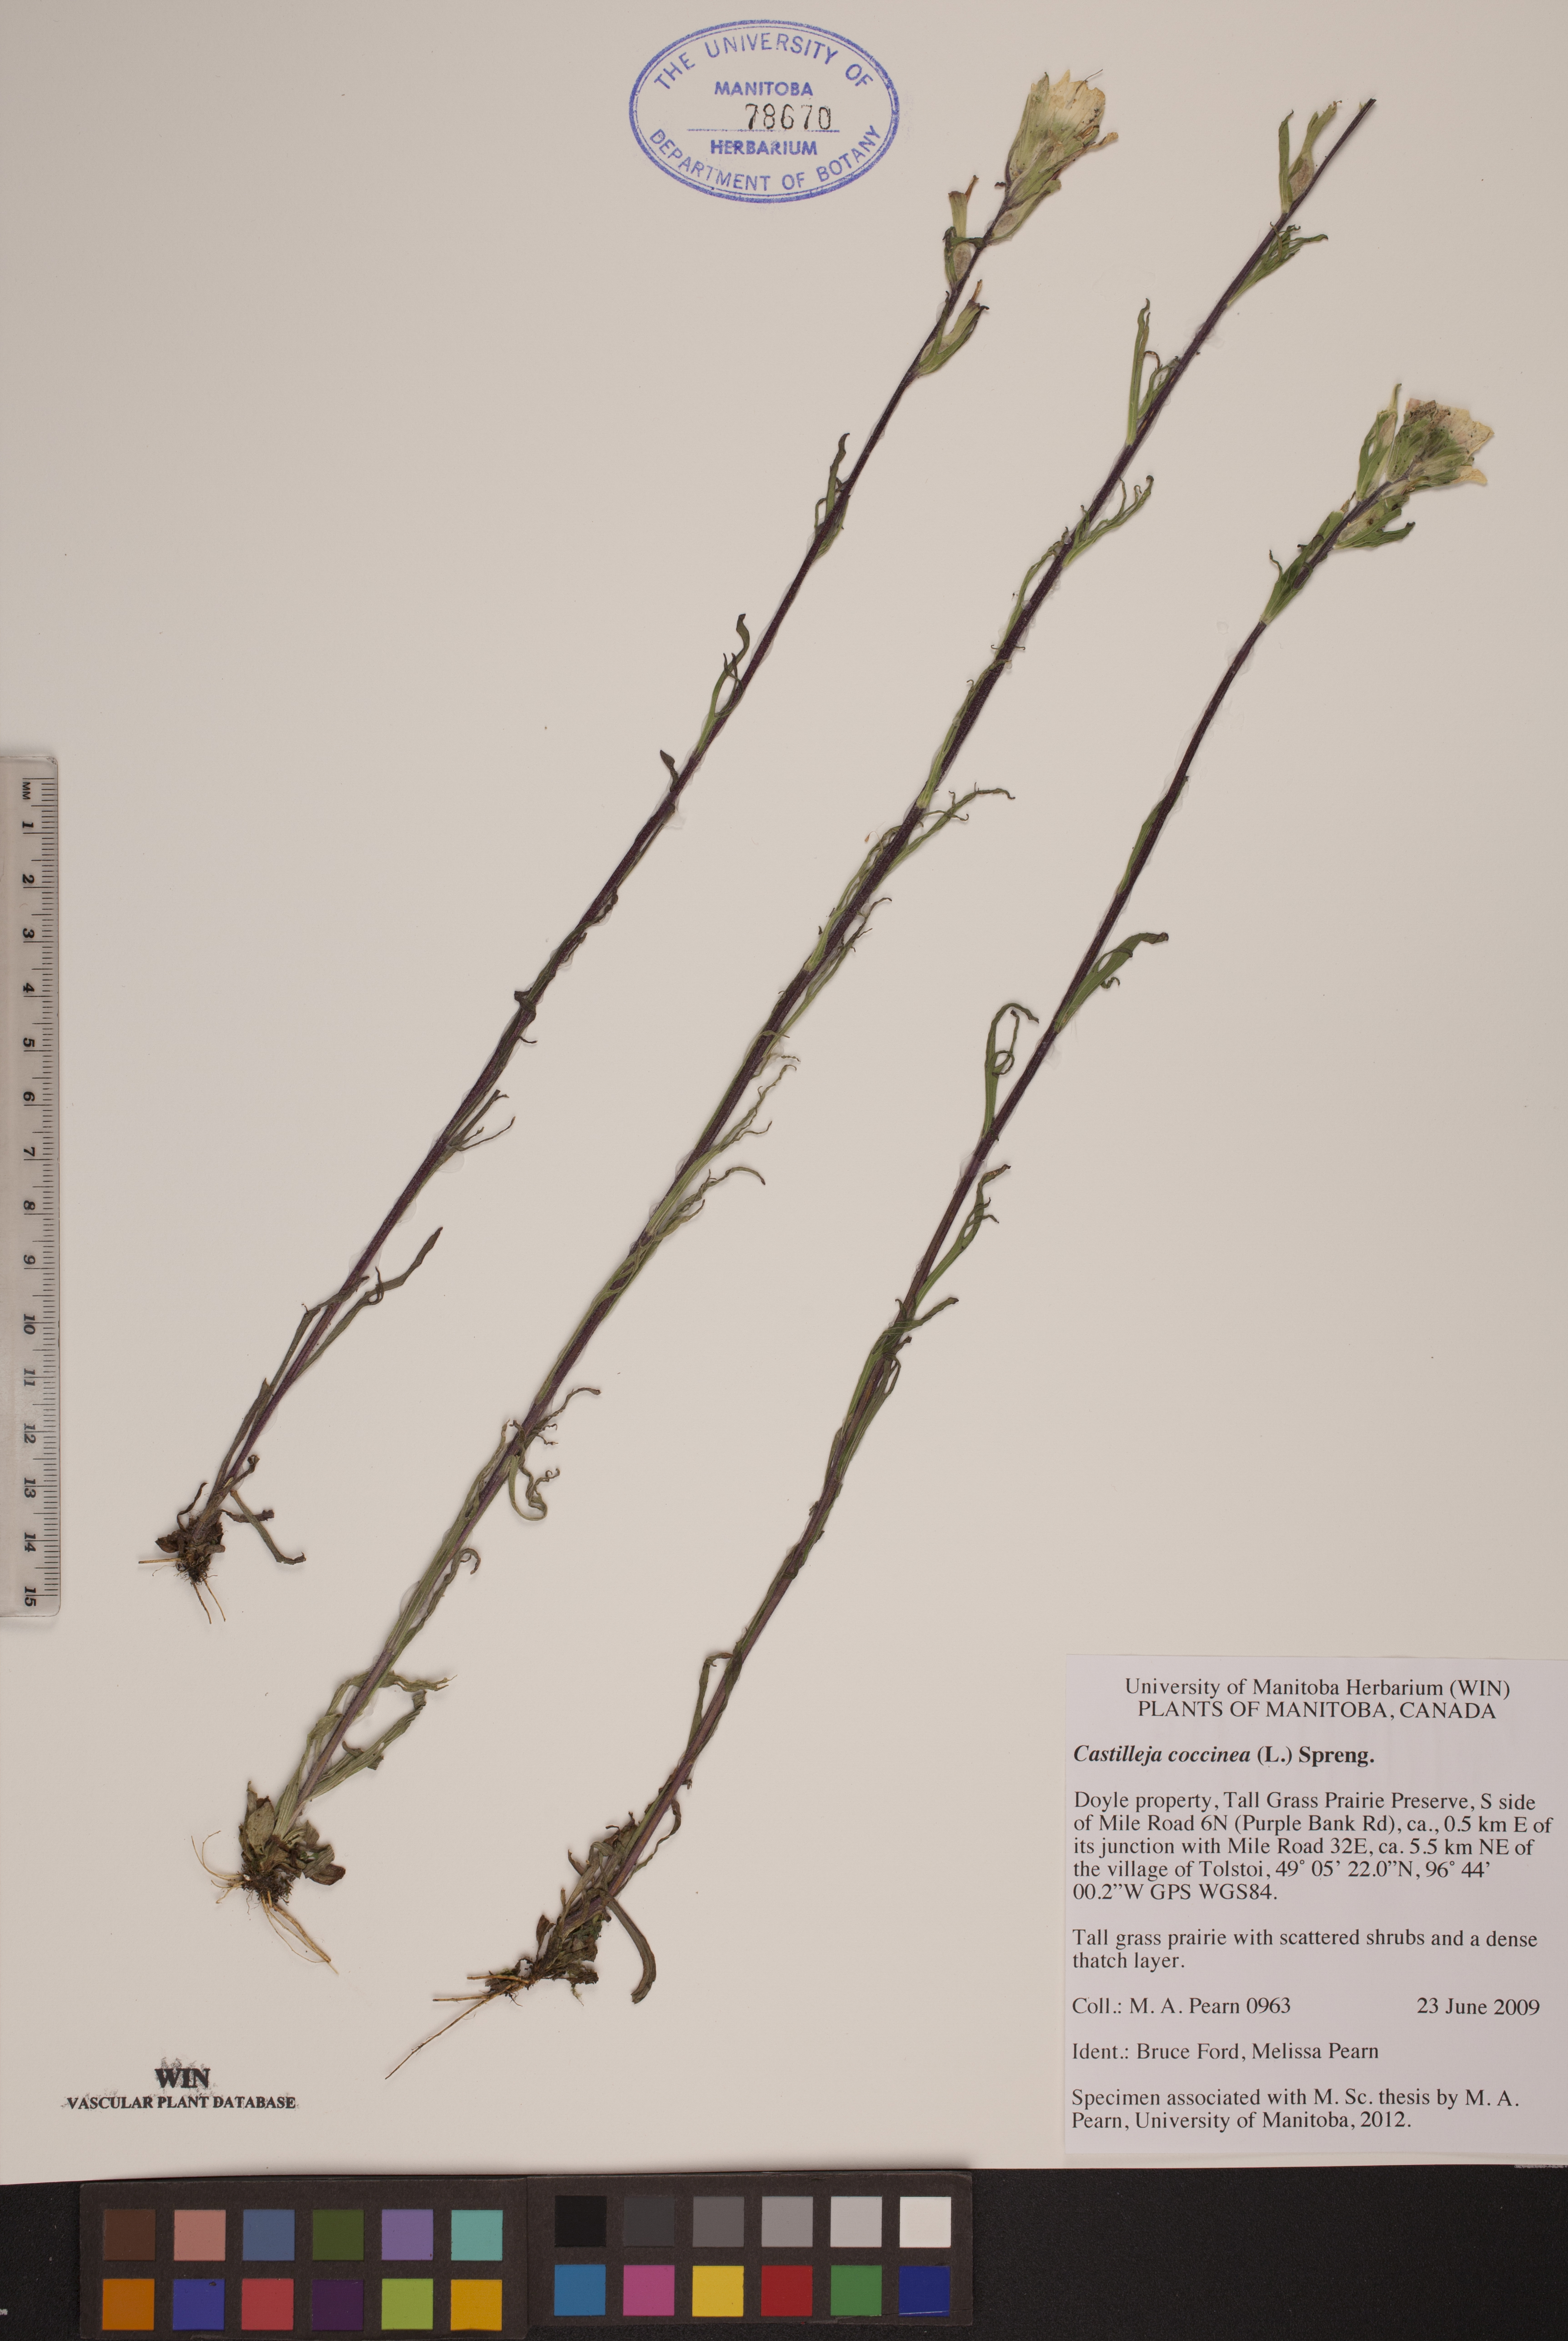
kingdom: Plantae
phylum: Tracheophyta
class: Magnoliopsida
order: Lamiales
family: Orobanchaceae
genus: Castilleja
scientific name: Castilleja coccinea
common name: Scarlet paintbrush
